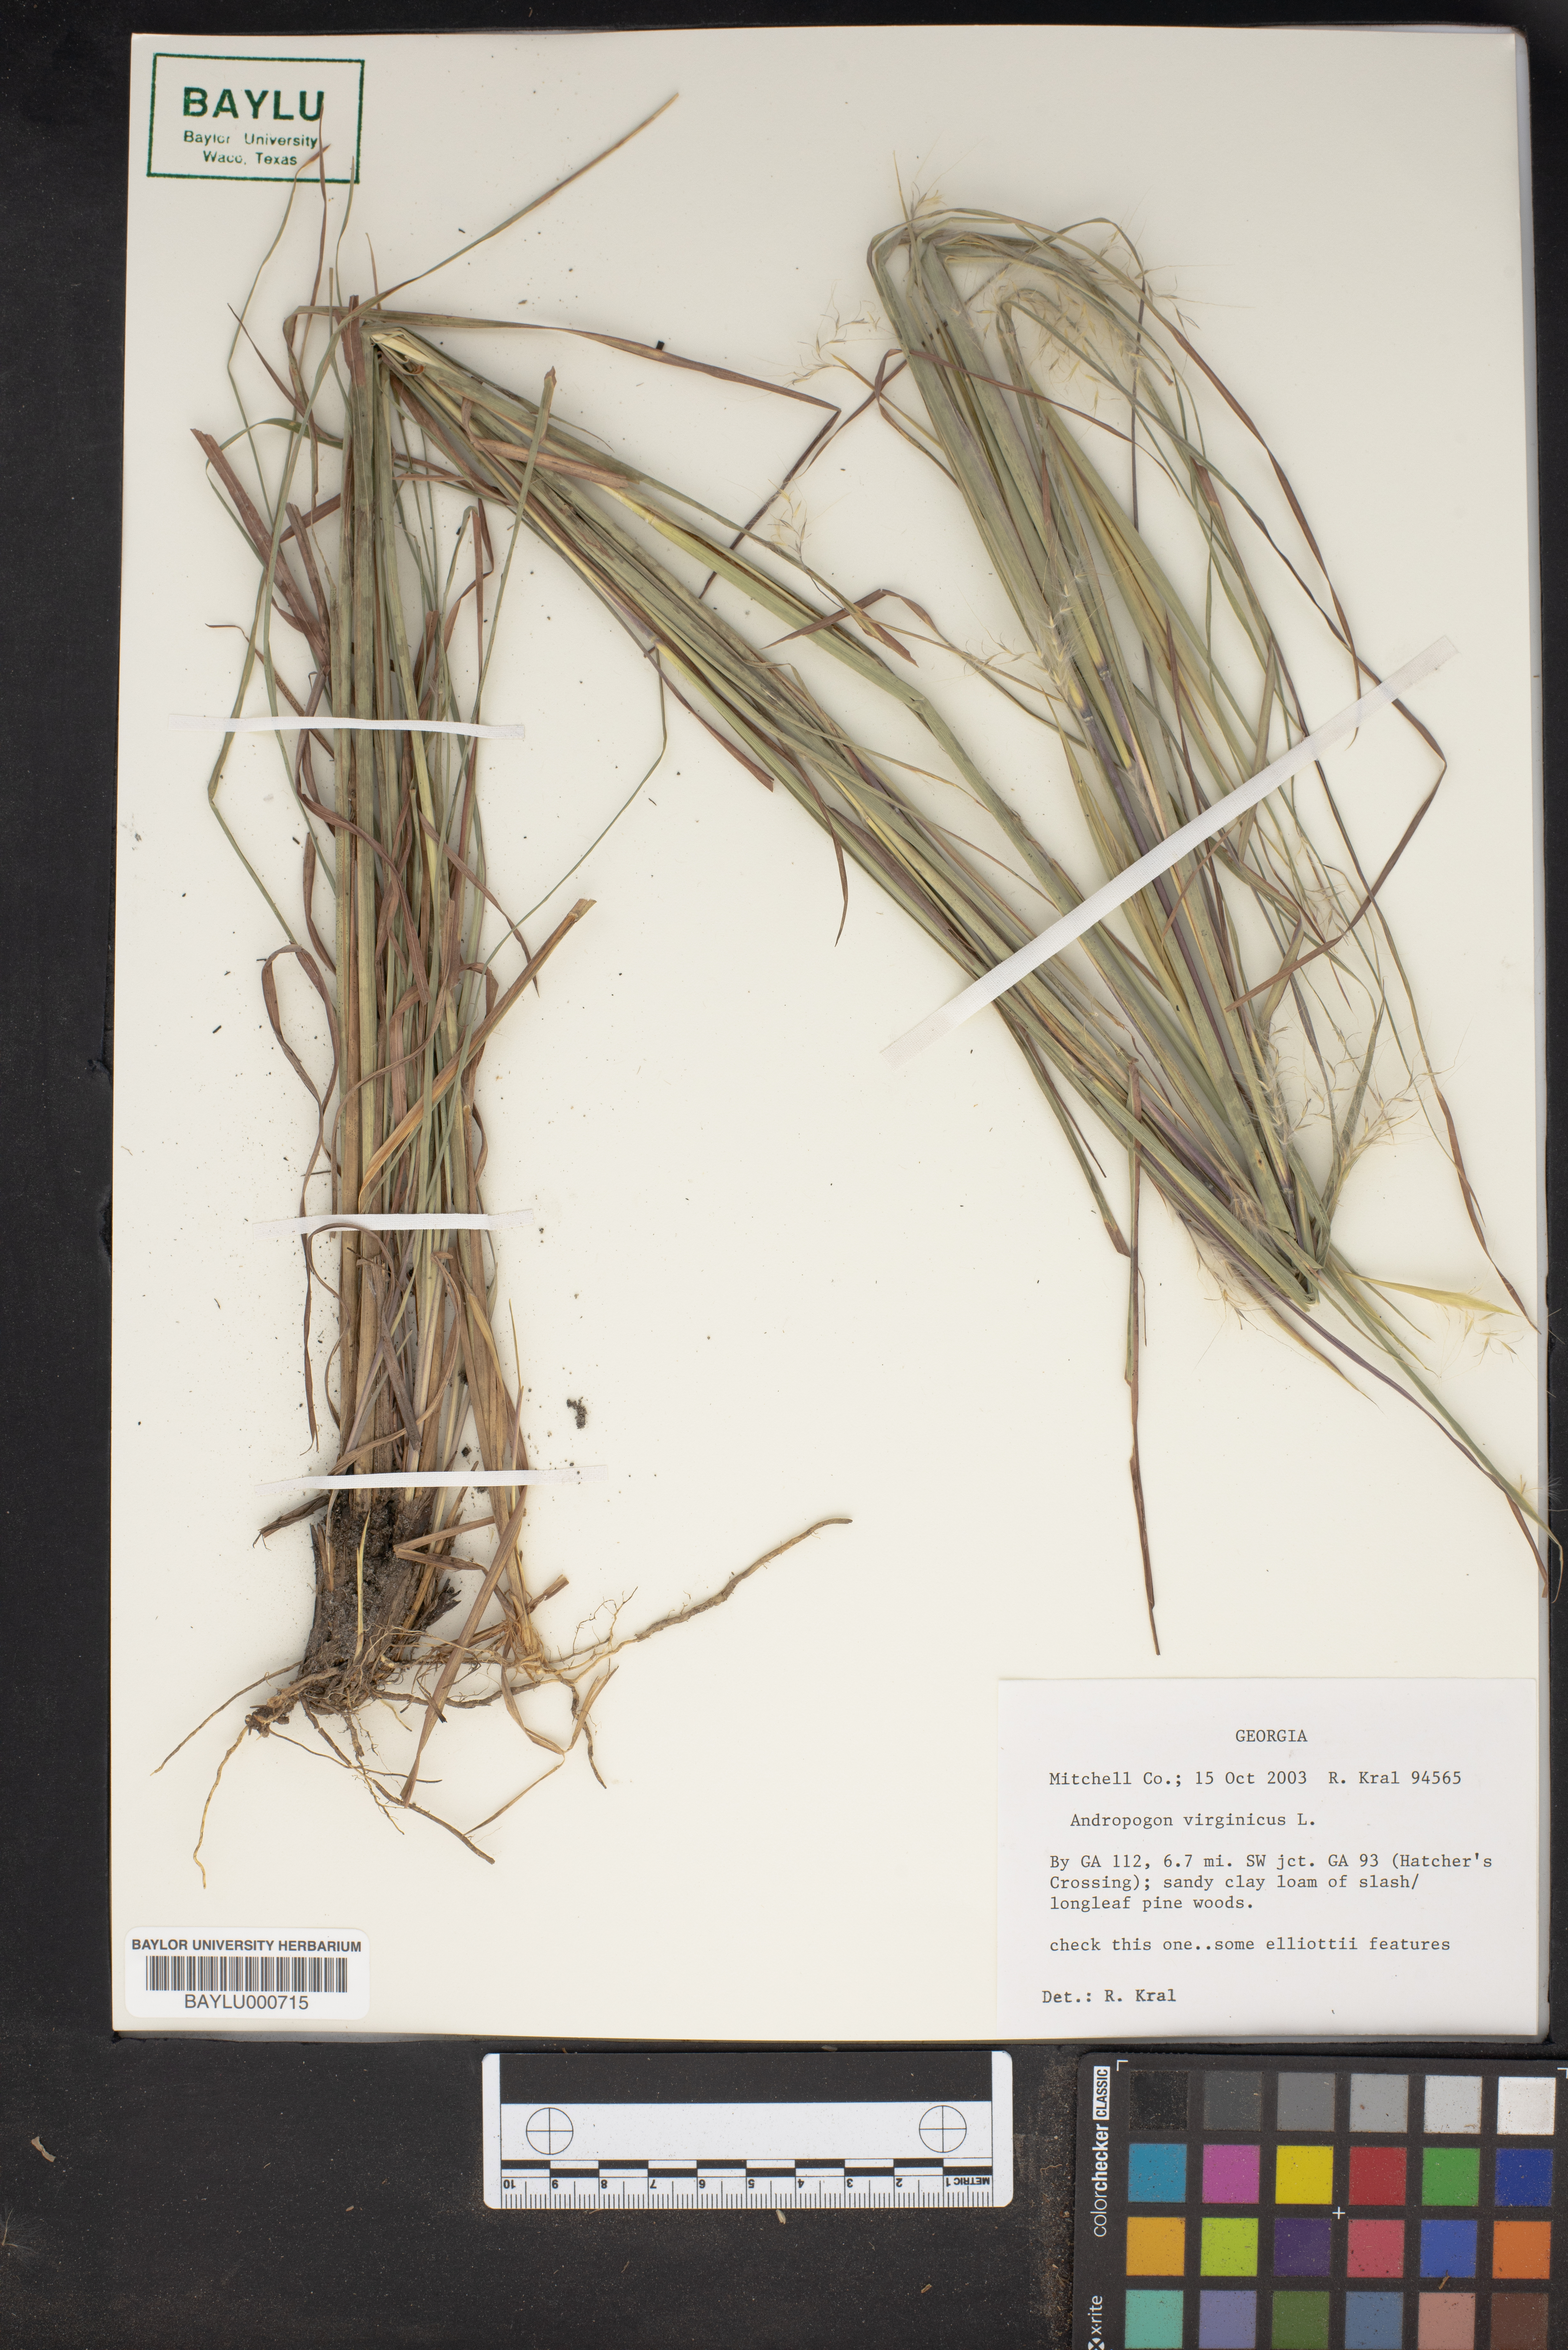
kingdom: Plantae
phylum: Tracheophyta
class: Liliopsida
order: Poales
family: Poaceae
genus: Andropogon
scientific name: Andropogon virginicus
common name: Broomsedge bluestem
